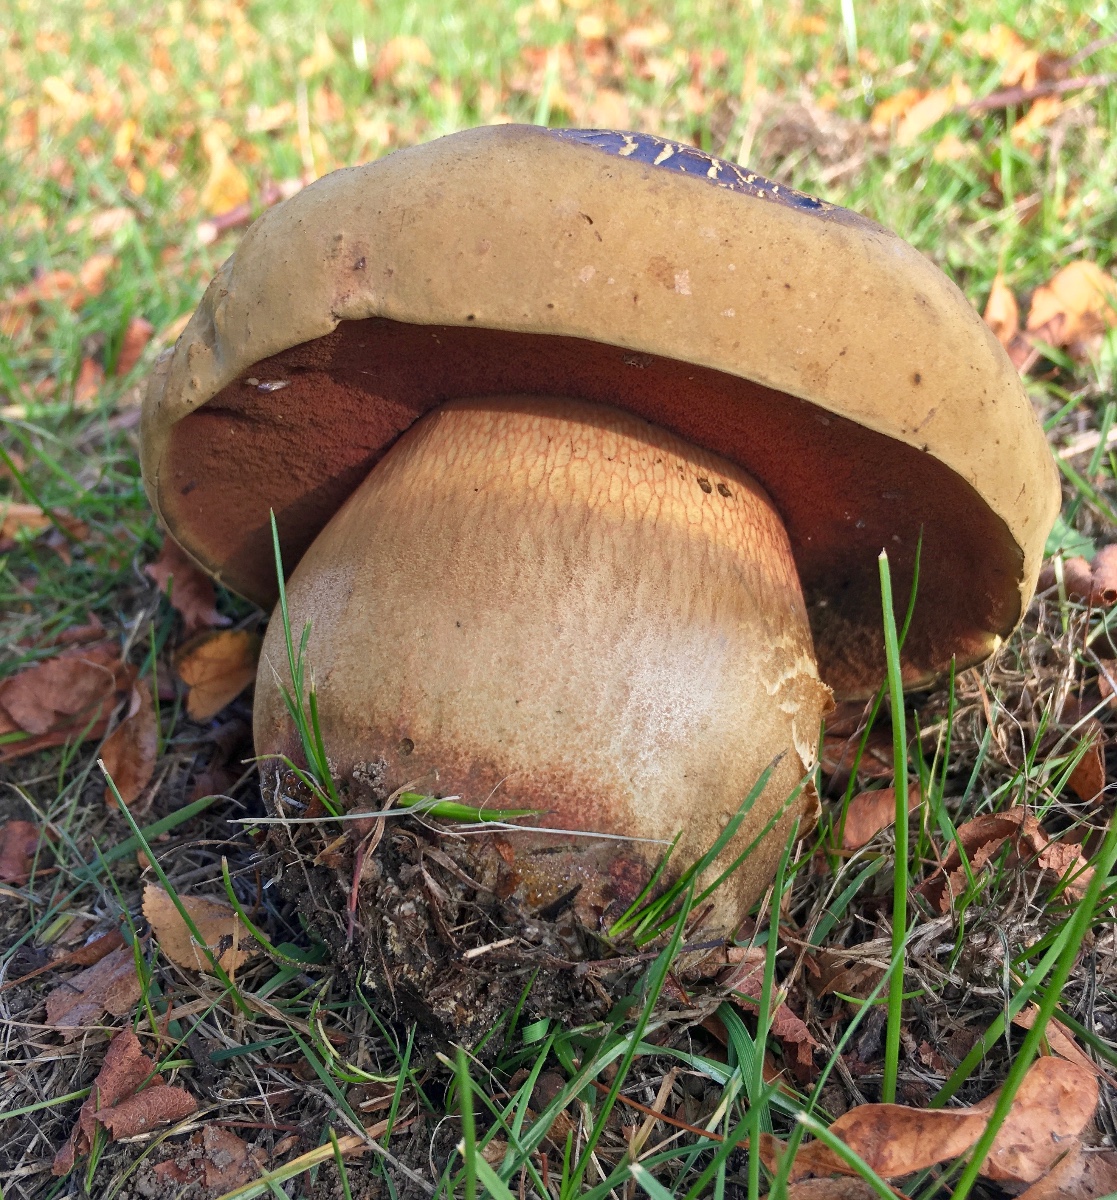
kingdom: Fungi
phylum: Basidiomycota
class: Agaricomycetes
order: Boletales
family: Boletaceae
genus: Suillellus
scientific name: Suillellus luridus
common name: netstokket indigorørhat
